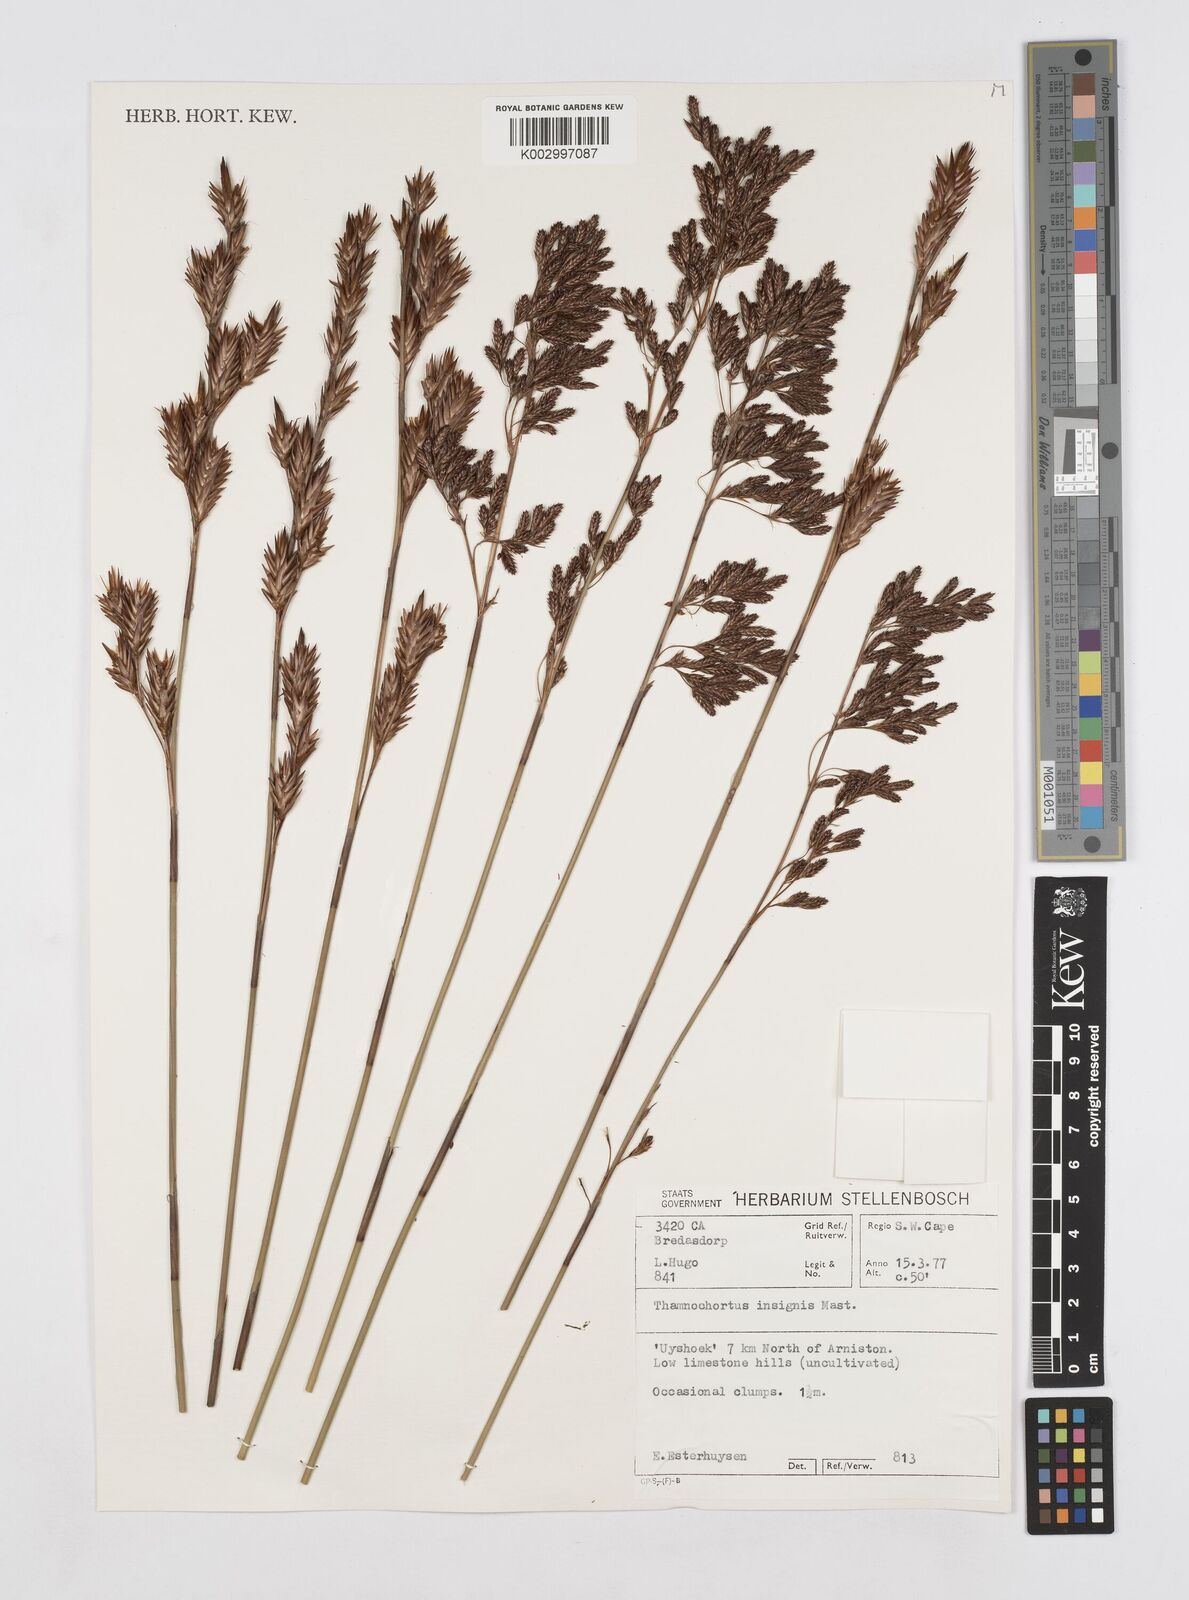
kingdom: Plantae
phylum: Tracheophyta
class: Liliopsida
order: Poales
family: Restionaceae
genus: Thamnochortus
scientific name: Thamnochortus insignis
